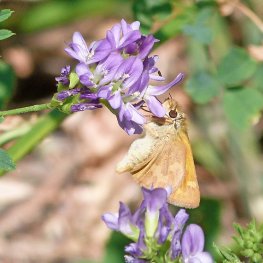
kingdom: Animalia
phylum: Arthropoda
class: Insecta
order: Lepidoptera
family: Hesperiidae
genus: Ochlodes
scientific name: Ochlodes sylvanoides
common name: Woodland Skipper
